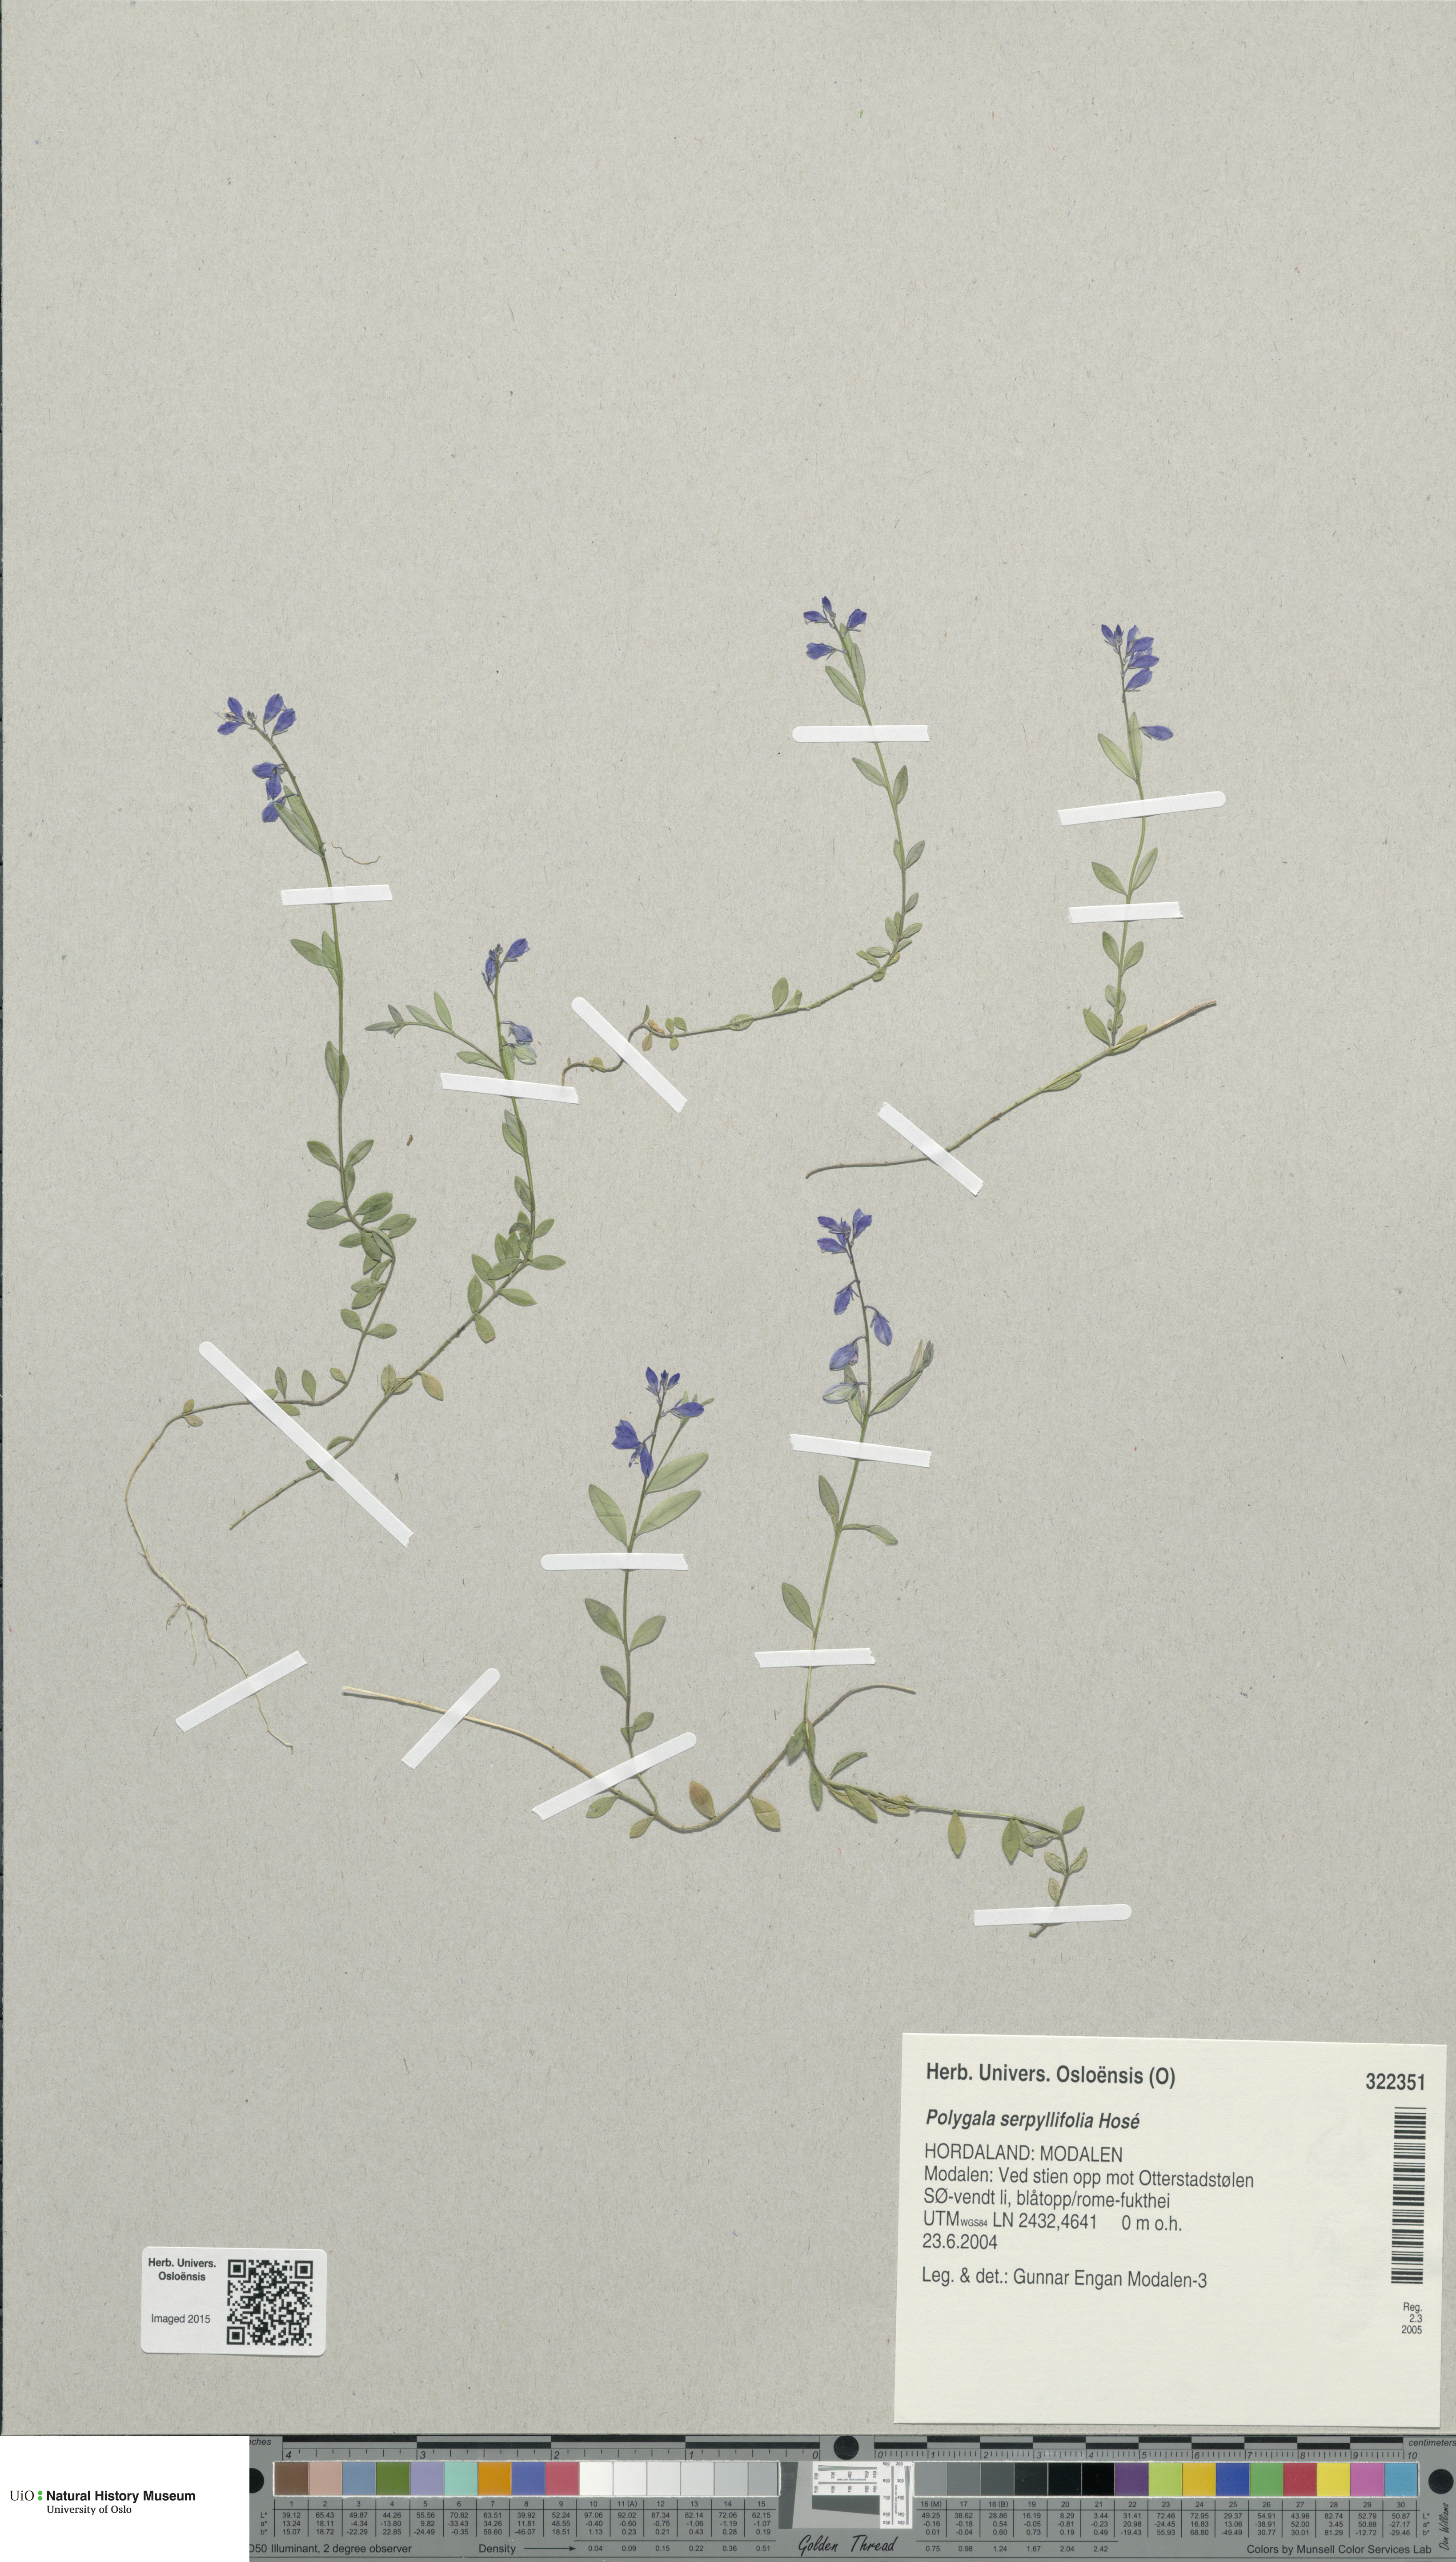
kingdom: Plantae
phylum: Tracheophyta
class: Magnoliopsida
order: Fabales
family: Polygalaceae
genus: Polygala
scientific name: Polygala serpyllifolia
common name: Heath milkwort
